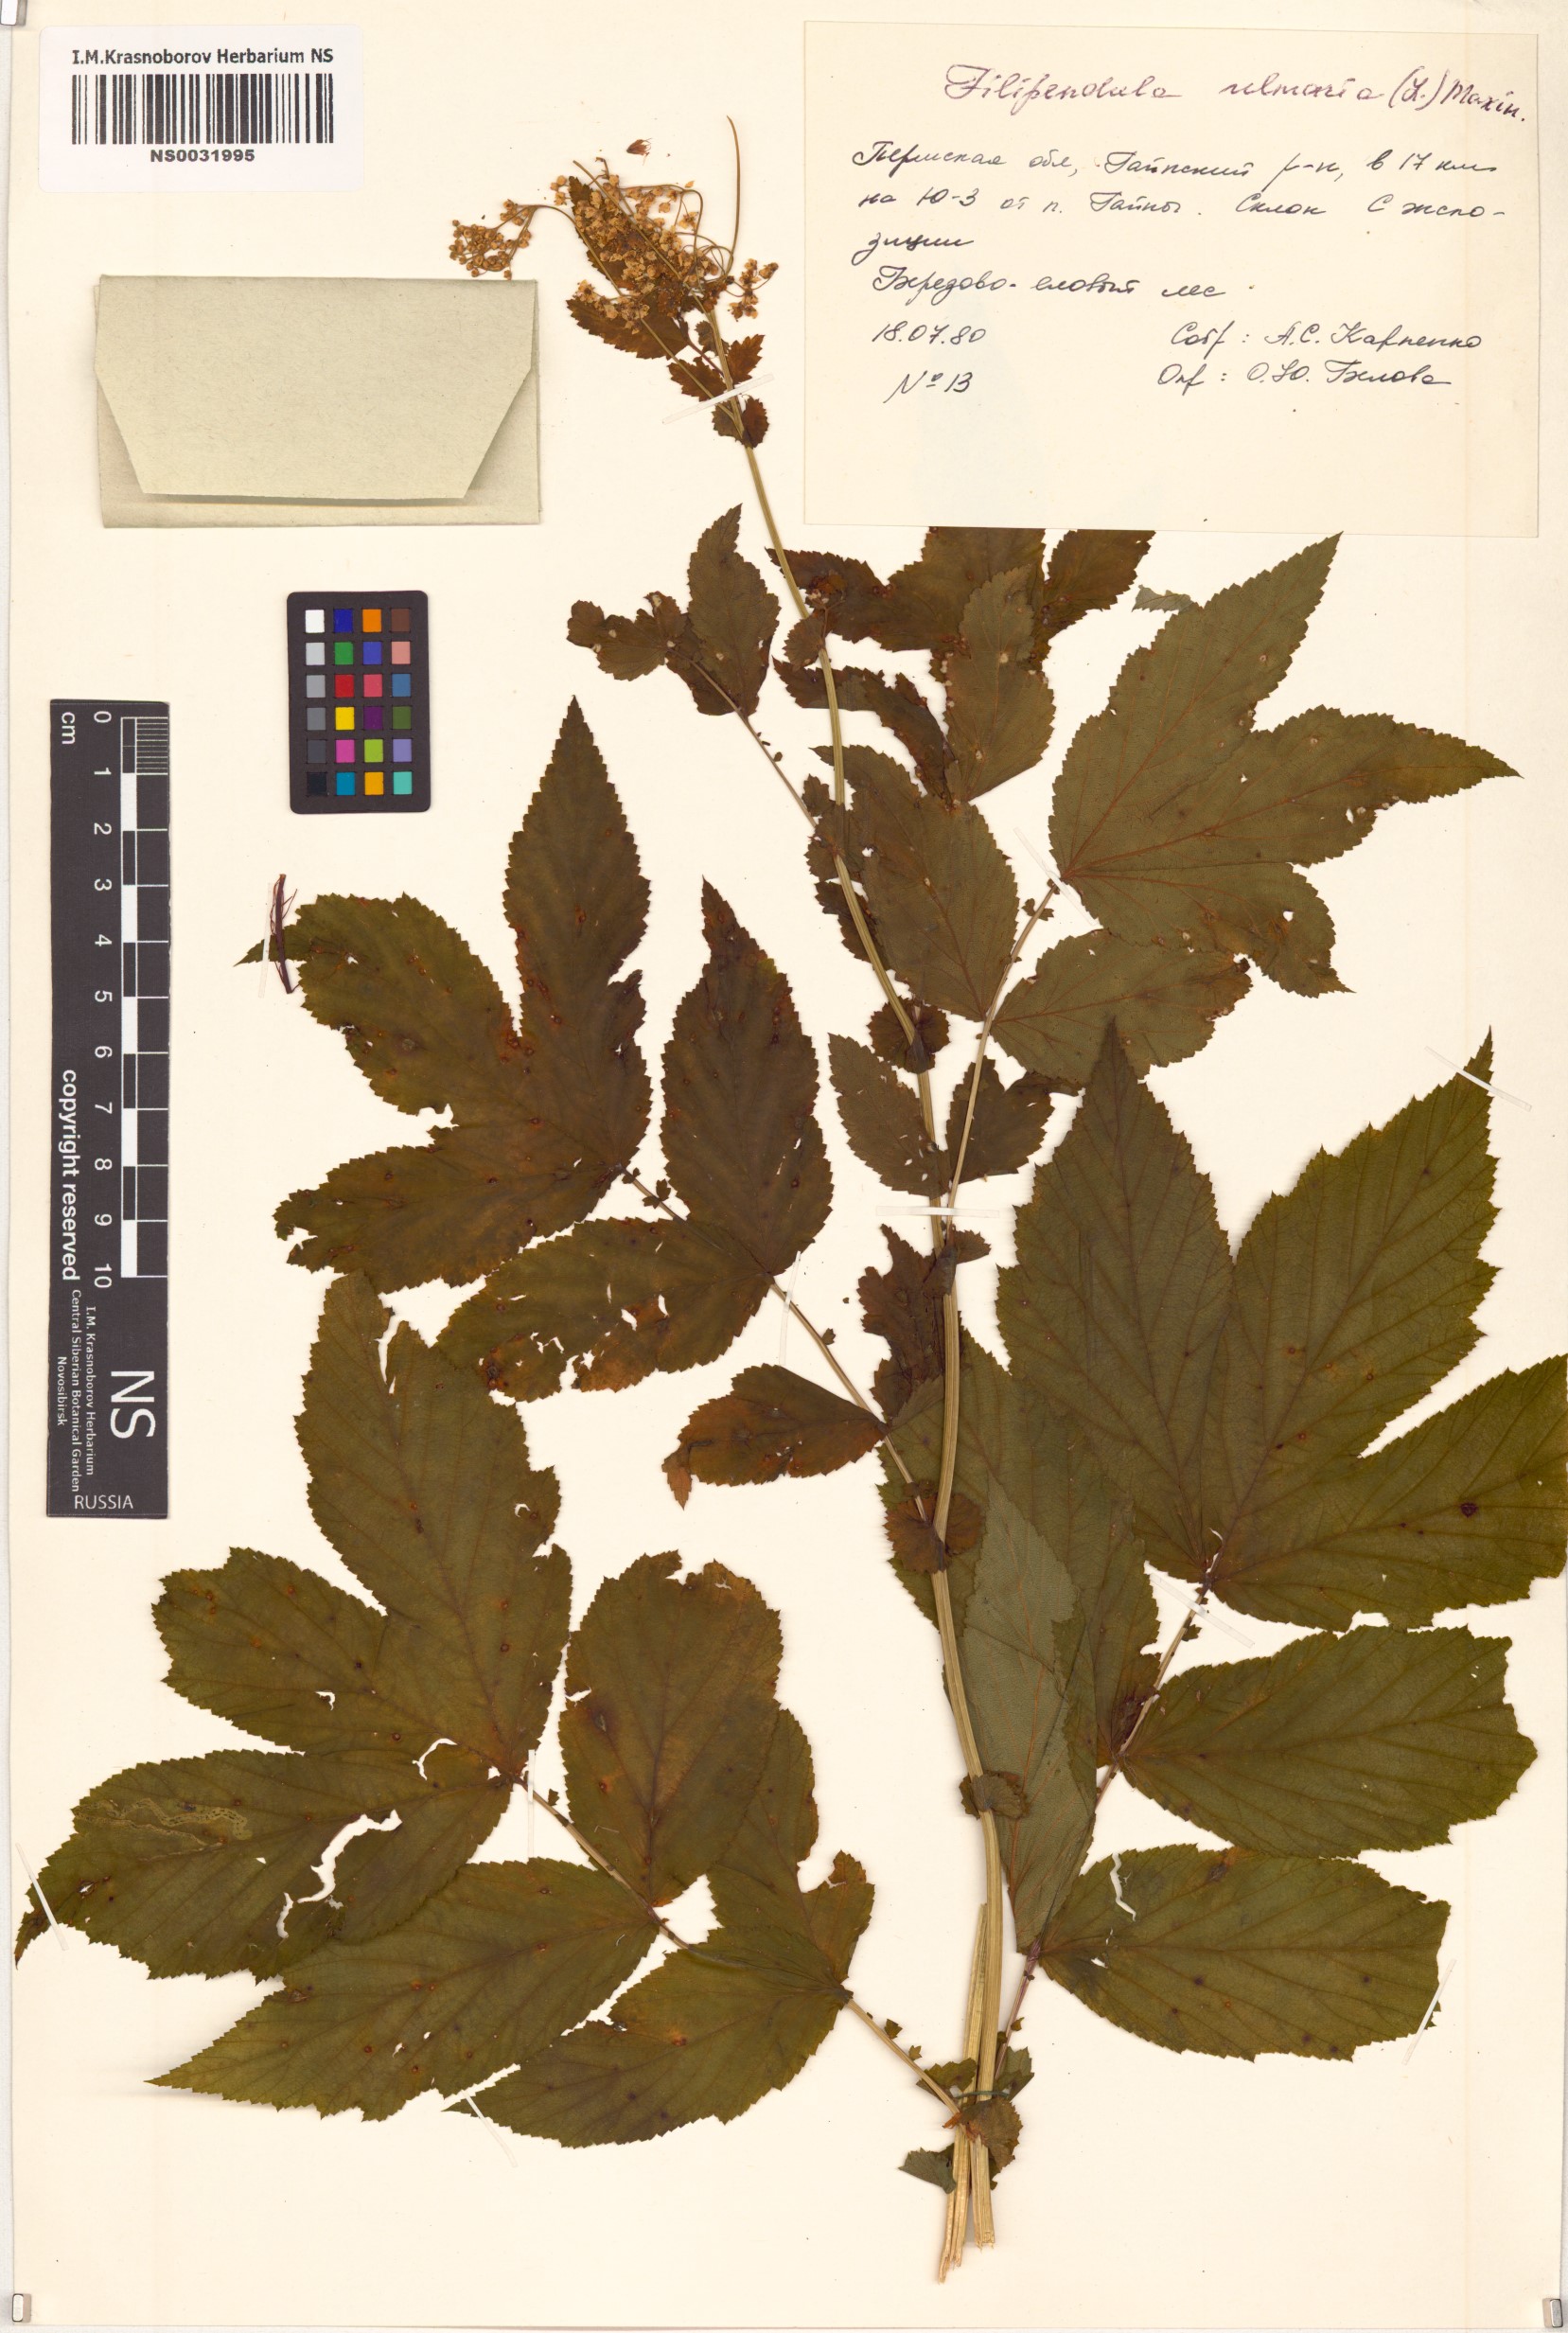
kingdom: Plantae
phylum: Tracheophyta
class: Magnoliopsida
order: Rosales
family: Rosaceae
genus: Filipendula
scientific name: Filipendula ulmaria
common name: Meadowsweet
